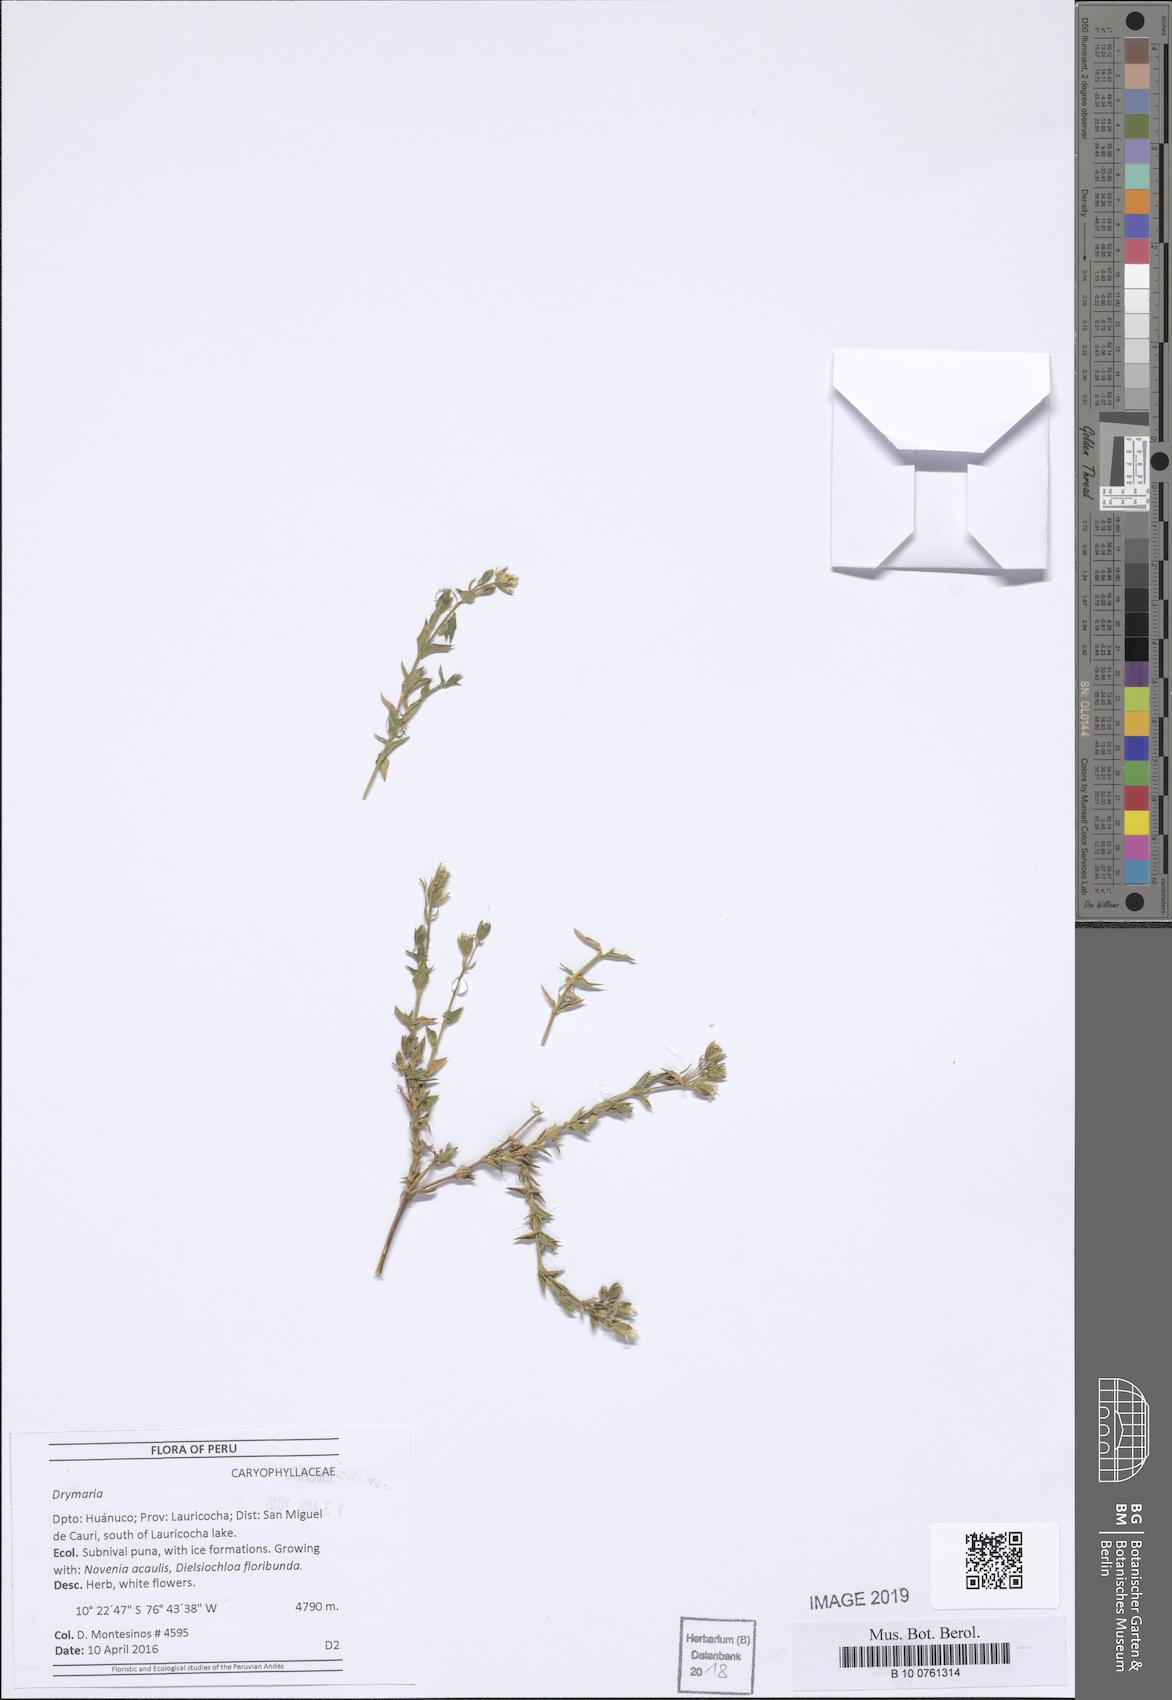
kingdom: Plantae
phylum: Tracheophyta
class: Magnoliopsida
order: Caryophyllales
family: Caryophyllaceae
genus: Drymaria
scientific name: Drymaria
